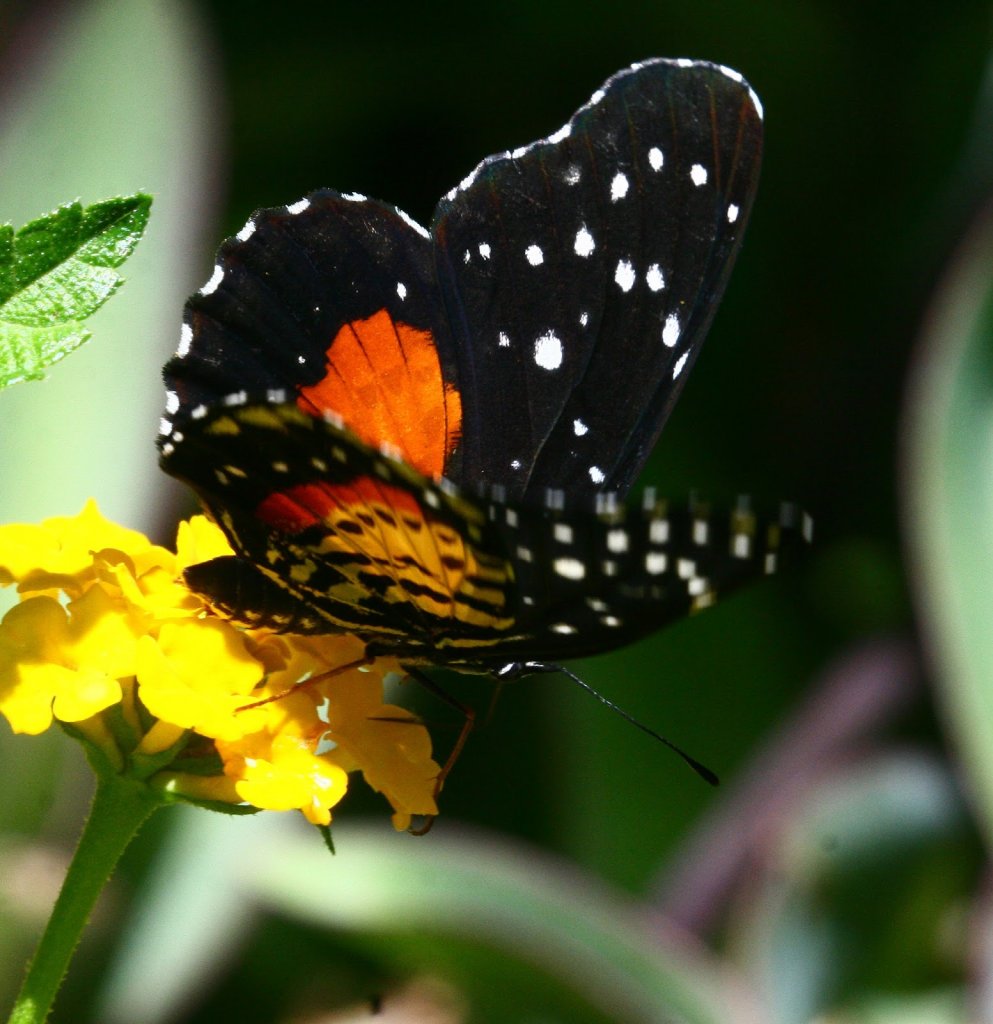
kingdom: Animalia
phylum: Arthropoda
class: Insecta
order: Lepidoptera
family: Nymphalidae
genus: Chlosyne
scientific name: Chlosyne janais
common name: Crimson Patch
